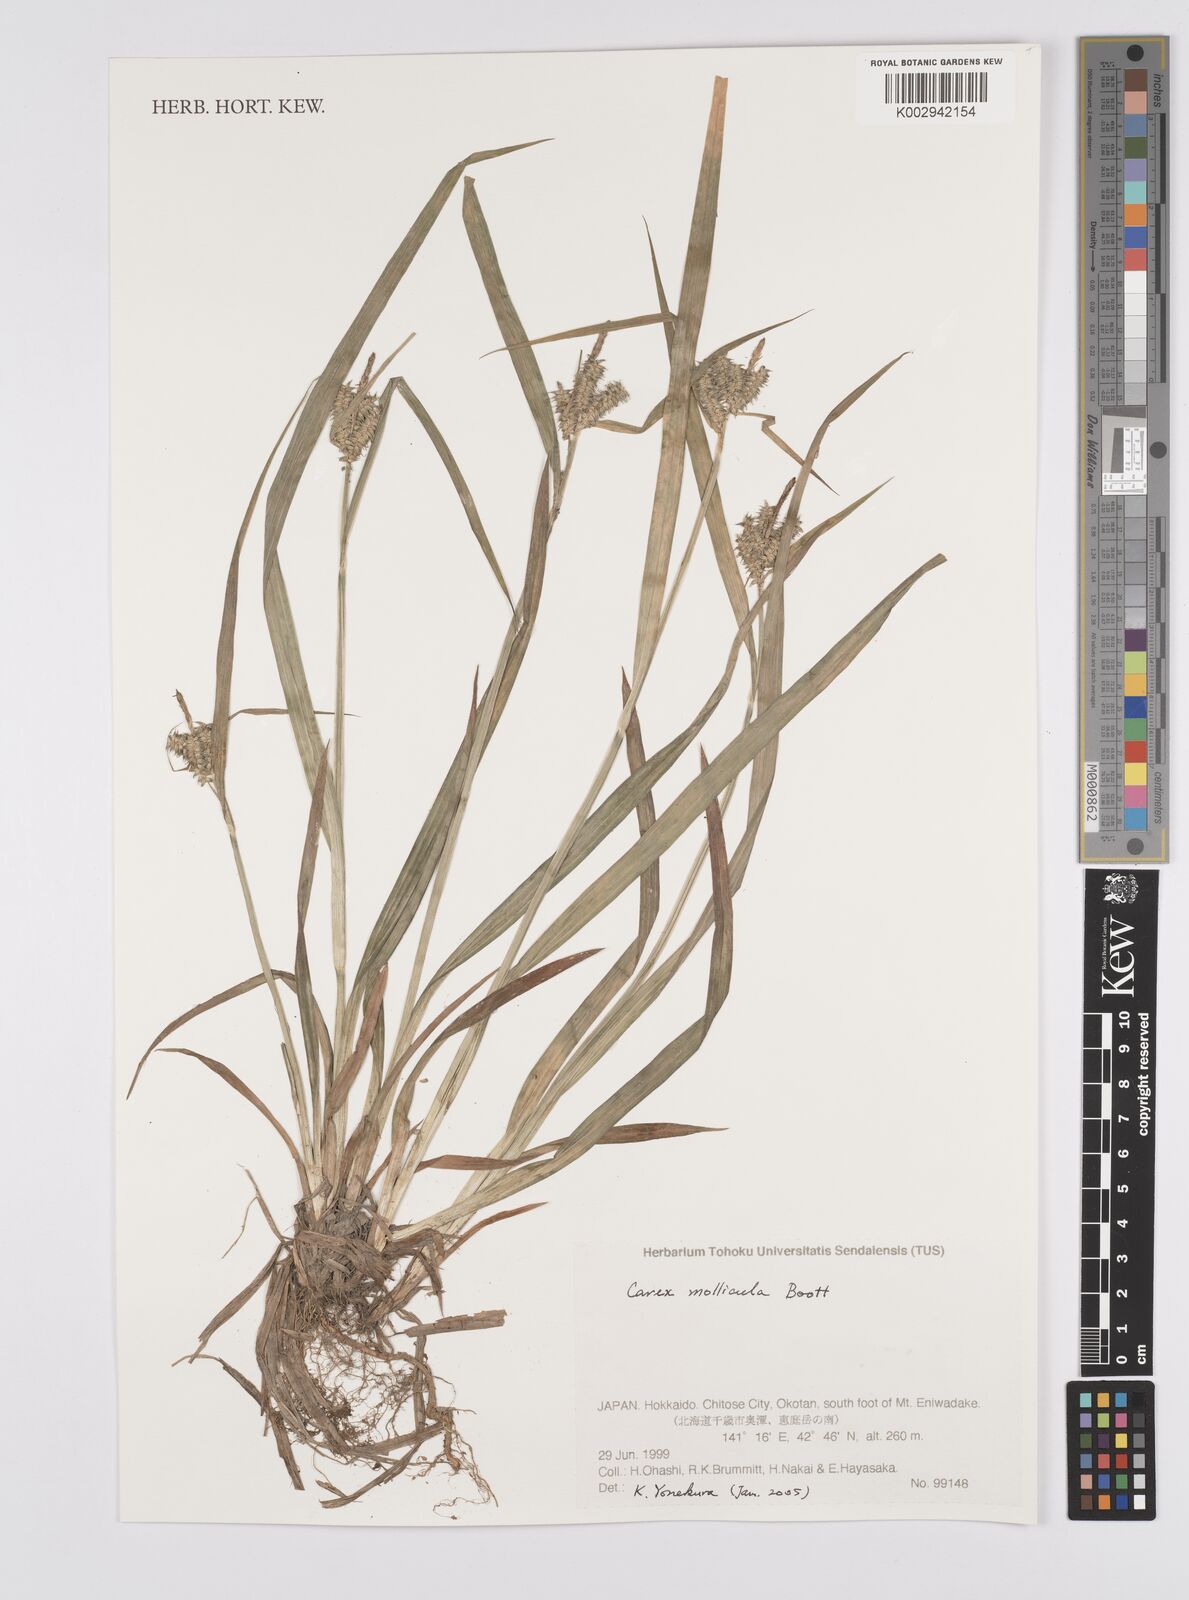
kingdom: Plantae
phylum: Tracheophyta
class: Liliopsida
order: Poales
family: Cyperaceae
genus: Carex
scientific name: Carex mollicula
